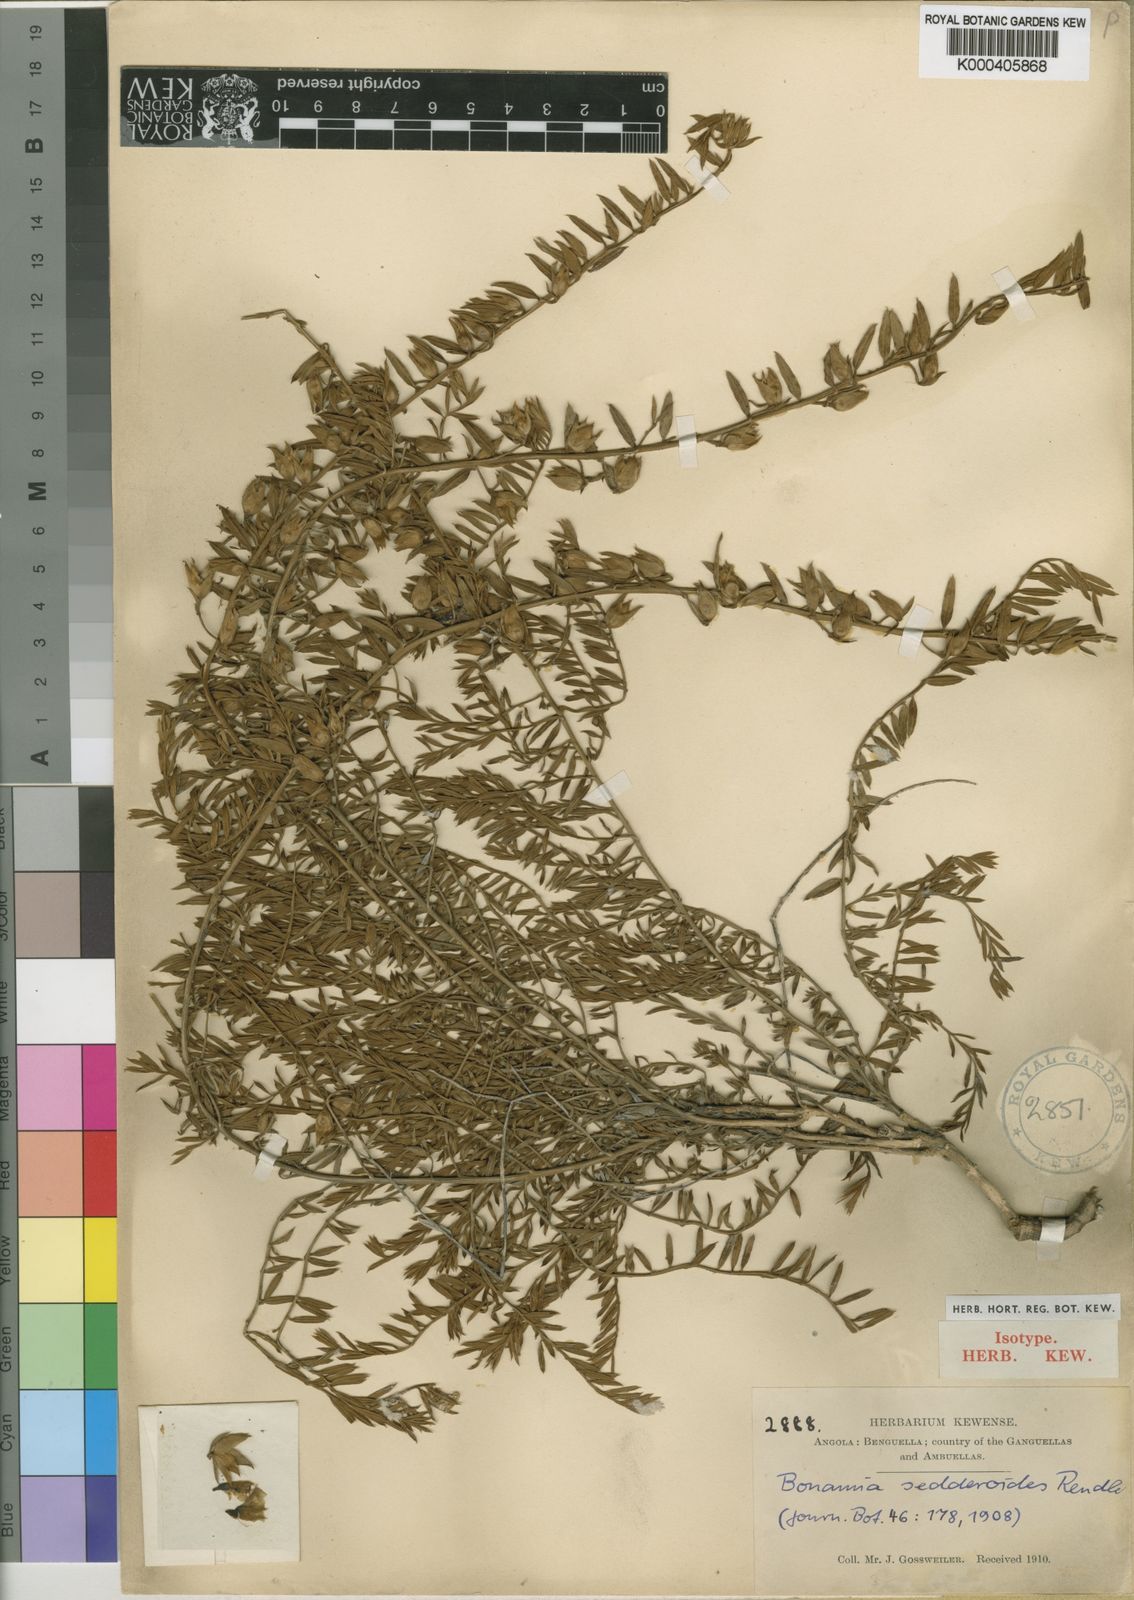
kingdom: Plantae
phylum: Tracheophyta
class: Magnoliopsida
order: Solanales
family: Convolvulaceae
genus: Bonamia
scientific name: Bonamia sedderoides
